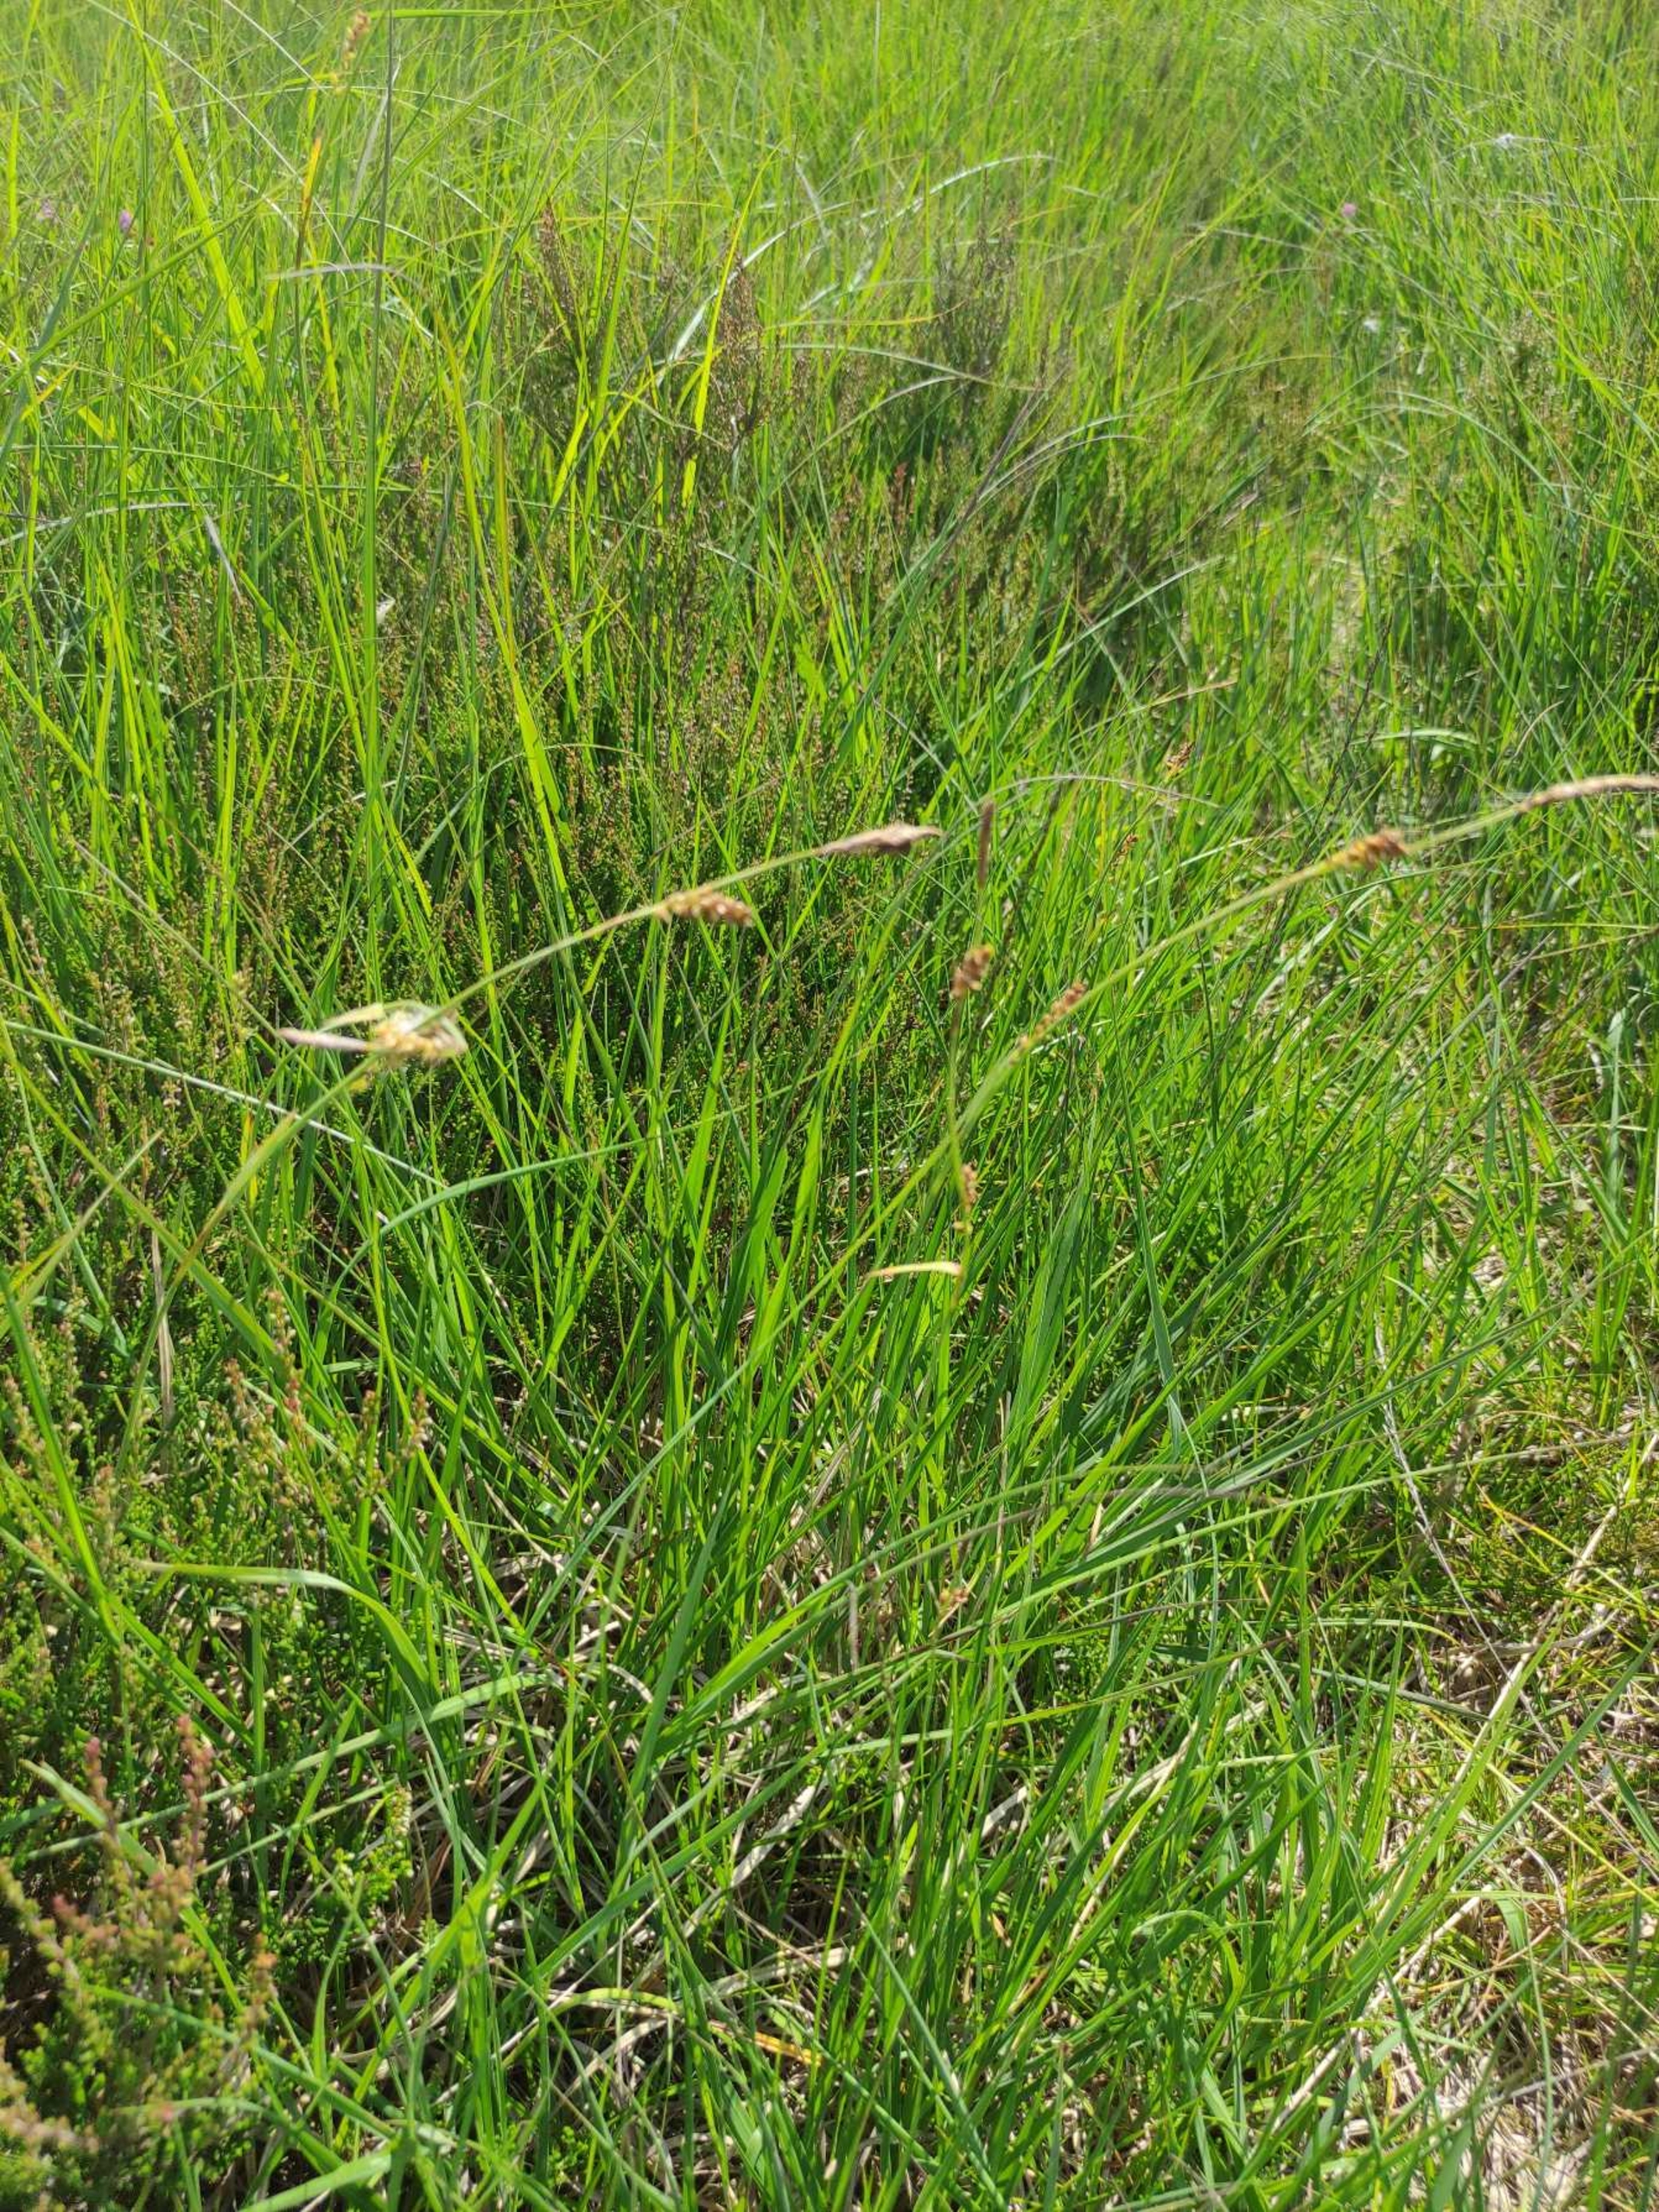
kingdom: Plantae
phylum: Tracheophyta
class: Liliopsida
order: Poales
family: Cyperaceae
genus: Carex
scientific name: Carex panicea
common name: Hirse-star
